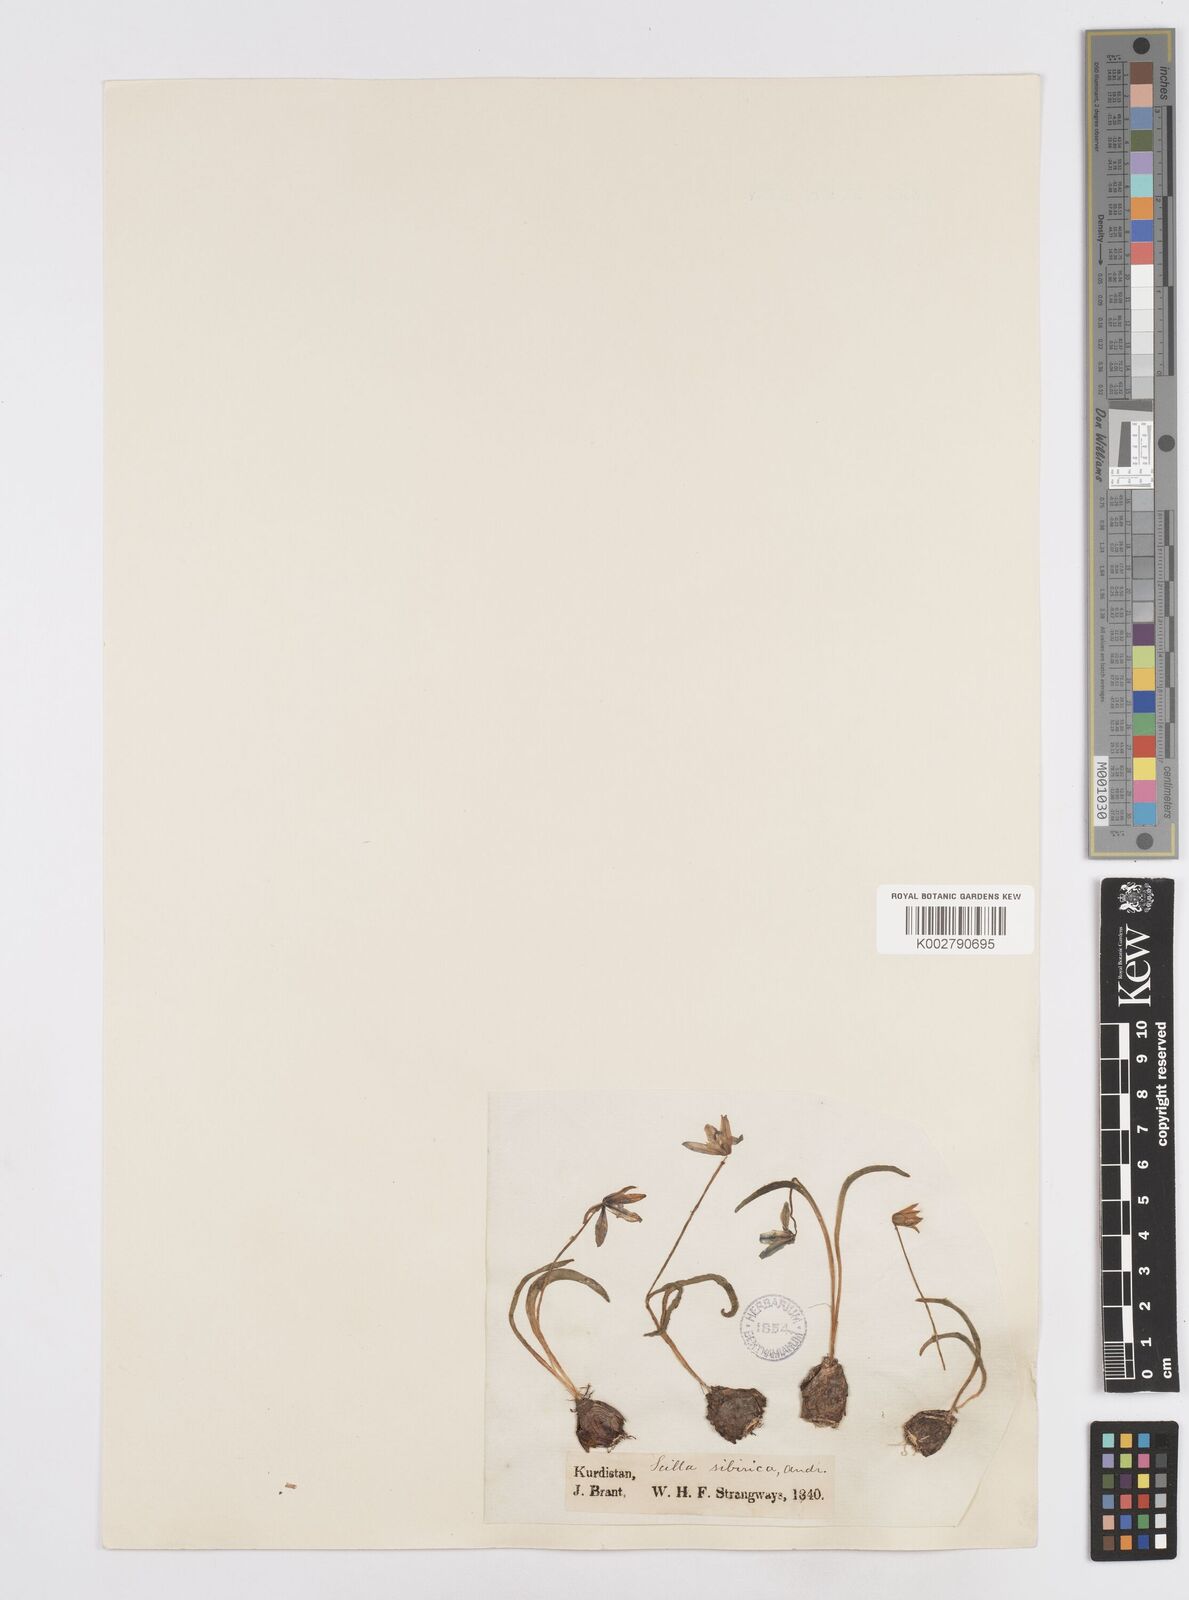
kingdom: Plantae
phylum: Tracheophyta
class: Liliopsida
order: Asparagales
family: Asparagaceae
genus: Scilla
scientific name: Scilla siberica
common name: Siberian squill
